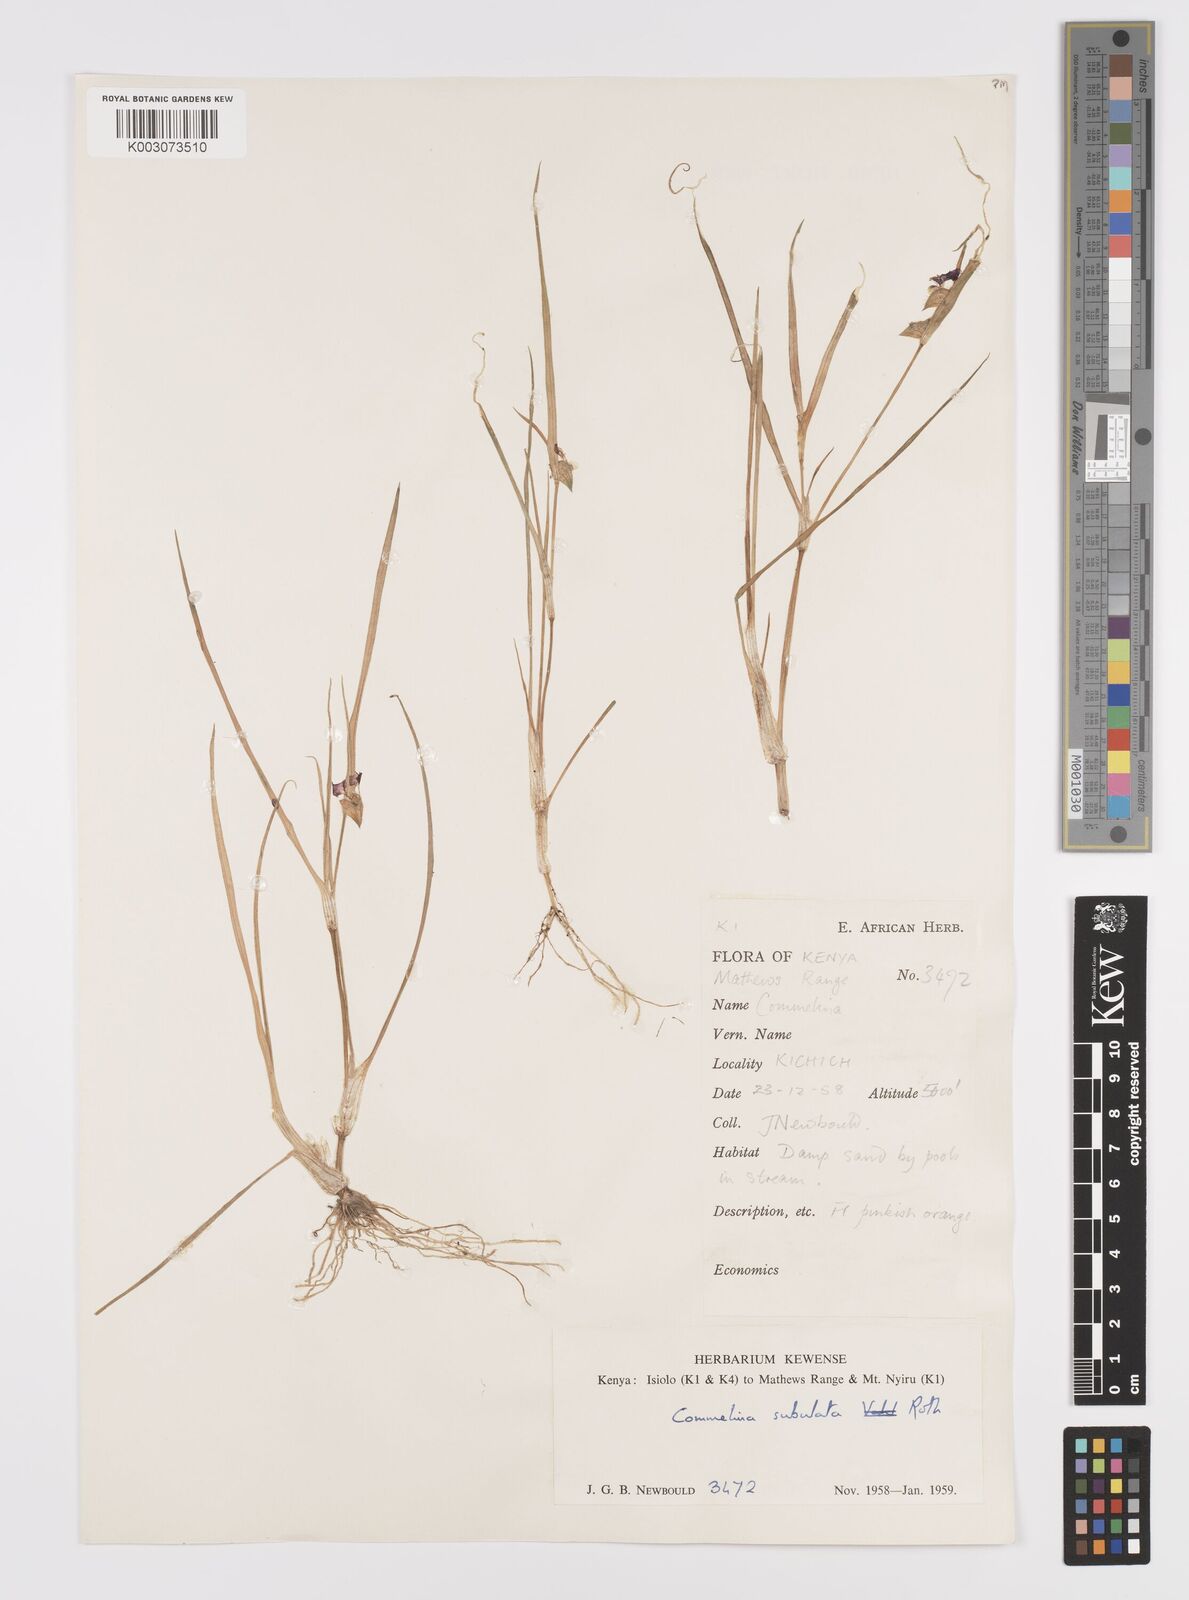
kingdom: Plantae
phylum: Tracheophyta
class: Liliopsida
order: Commelinales
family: Commelinaceae
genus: Commelina
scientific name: Commelina subulata
